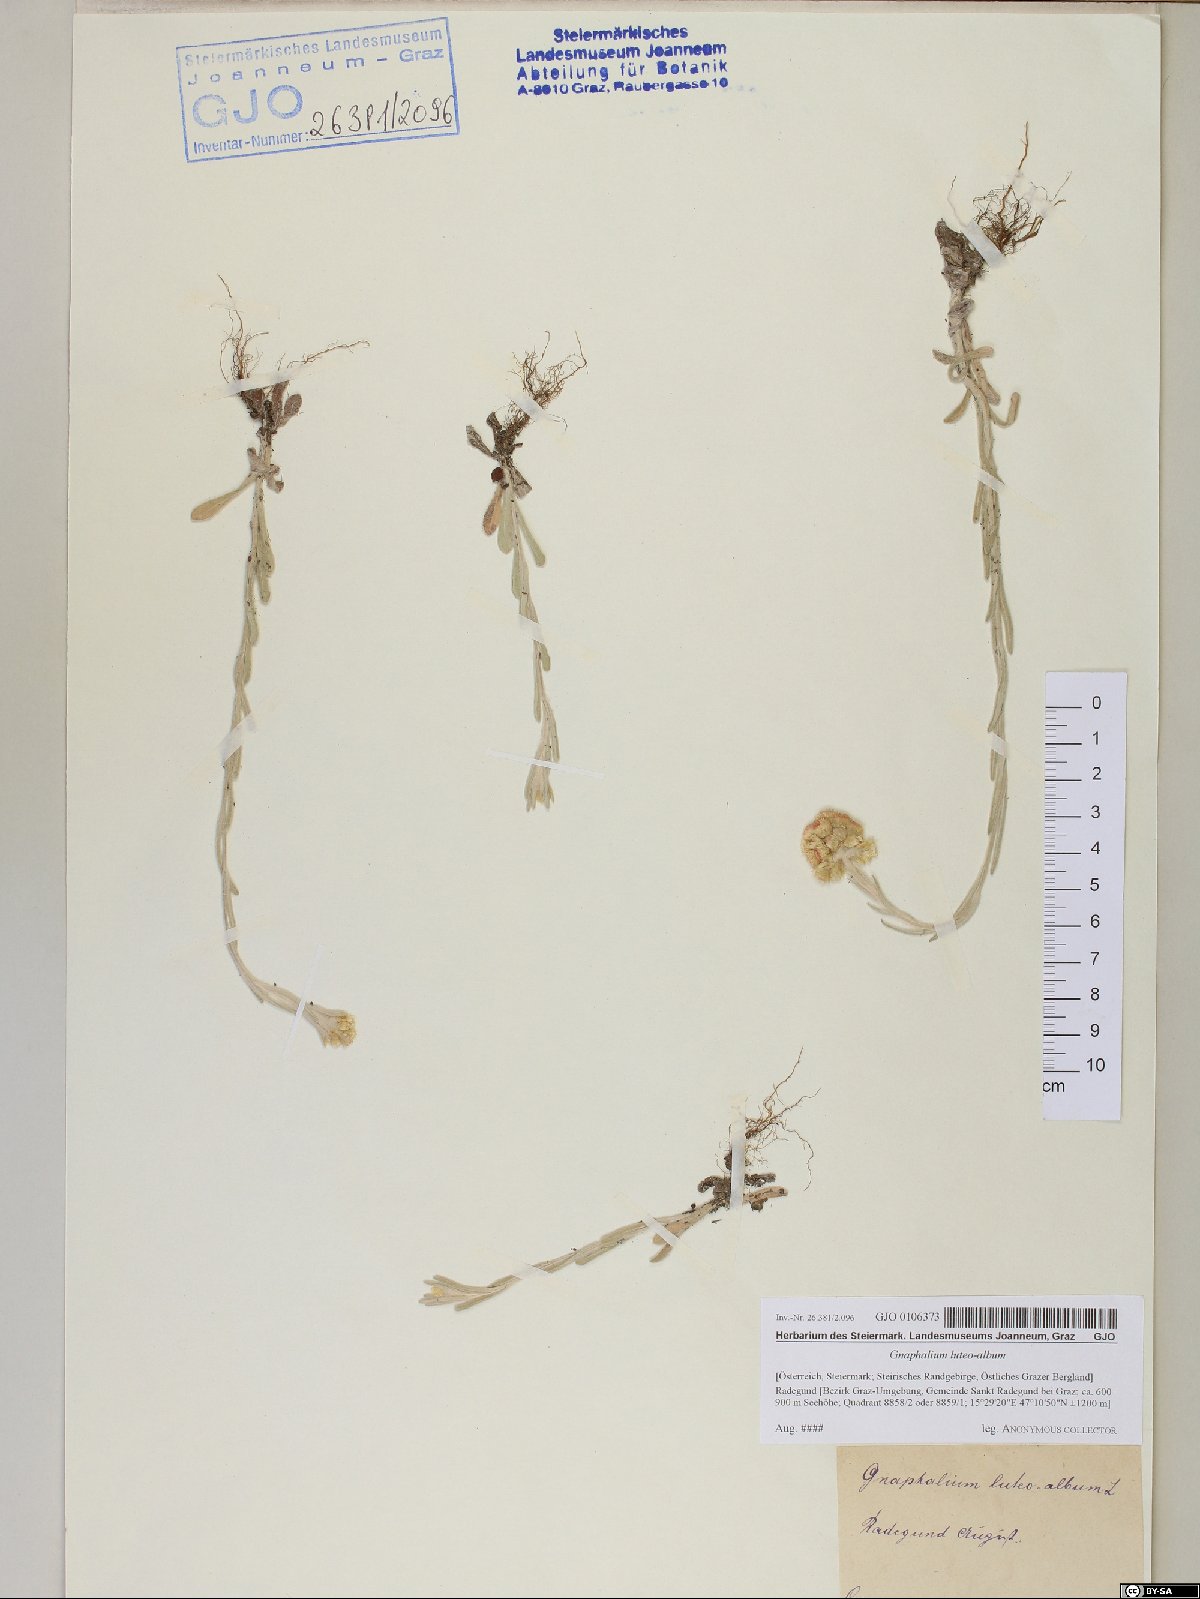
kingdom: Plantae
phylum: Tracheophyta
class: Magnoliopsida
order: Asterales
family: Asteraceae
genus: Helichrysum
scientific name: Helichrysum luteoalbum
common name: Daisy
